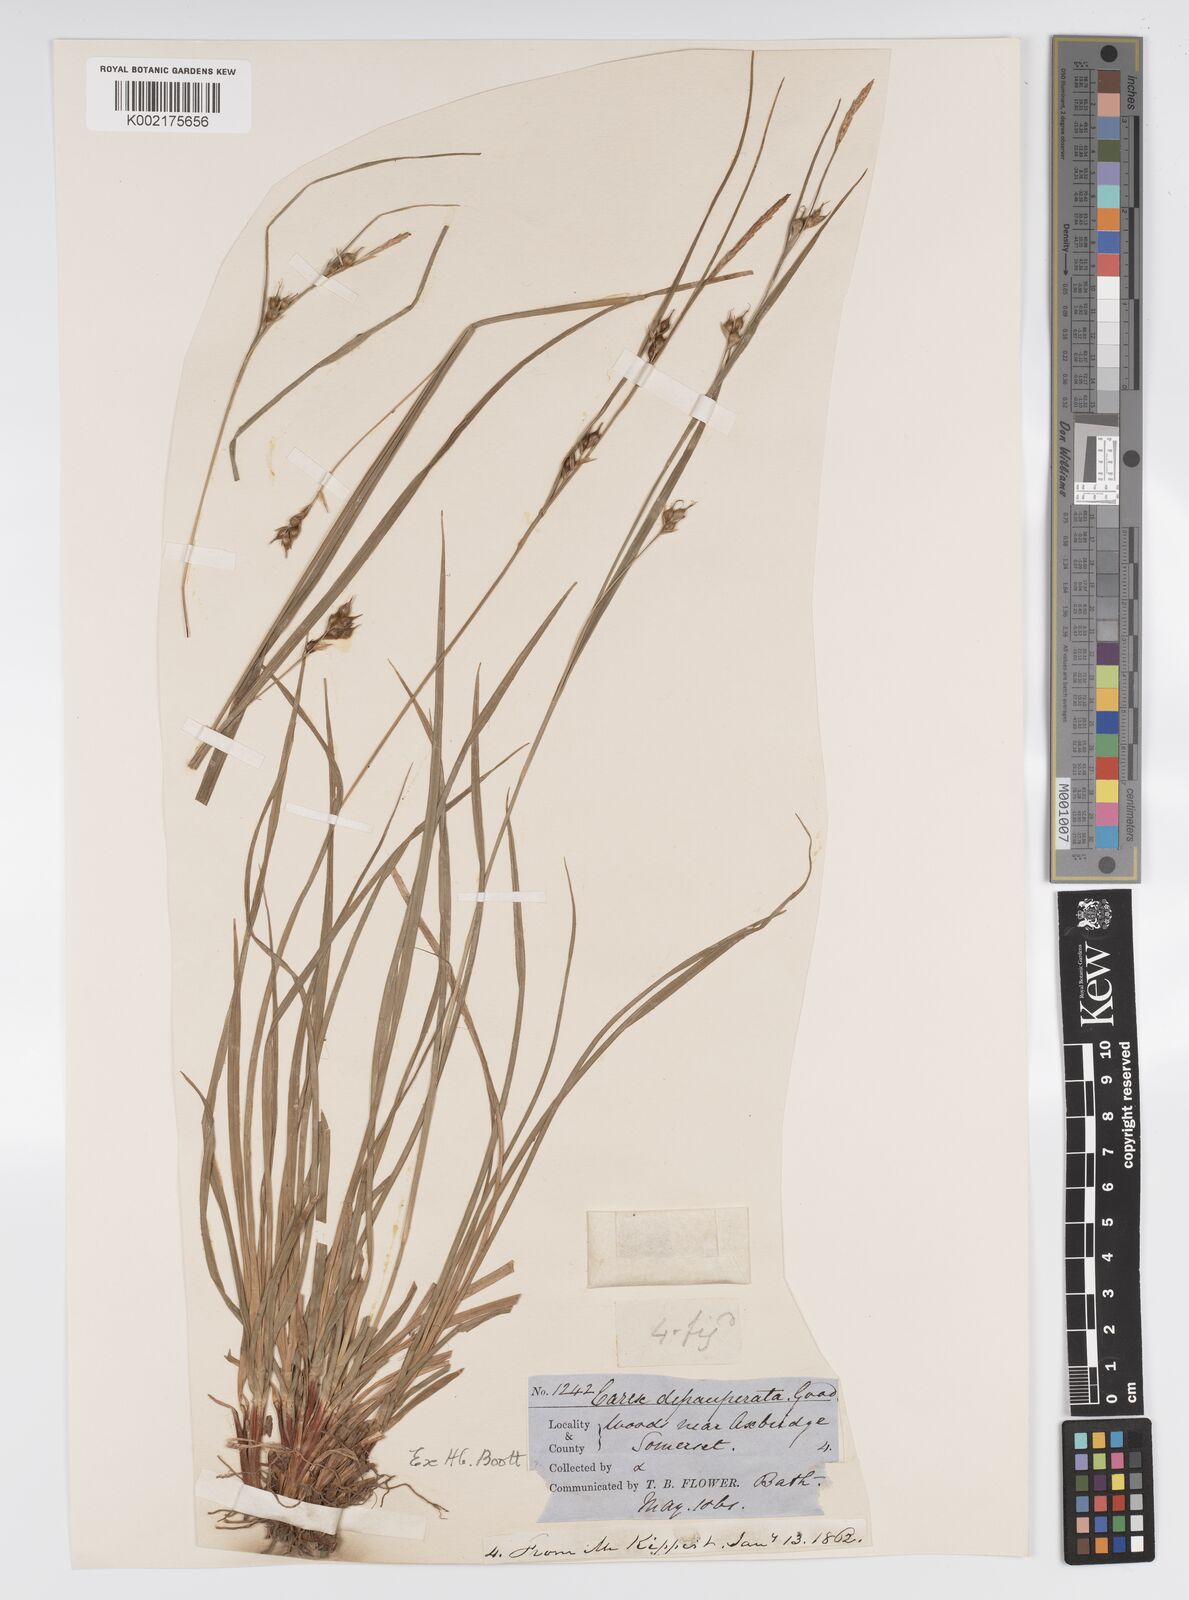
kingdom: Plantae
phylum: Tracheophyta
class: Liliopsida
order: Poales
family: Cyperaceae
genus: Carex
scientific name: Carex depauperata
